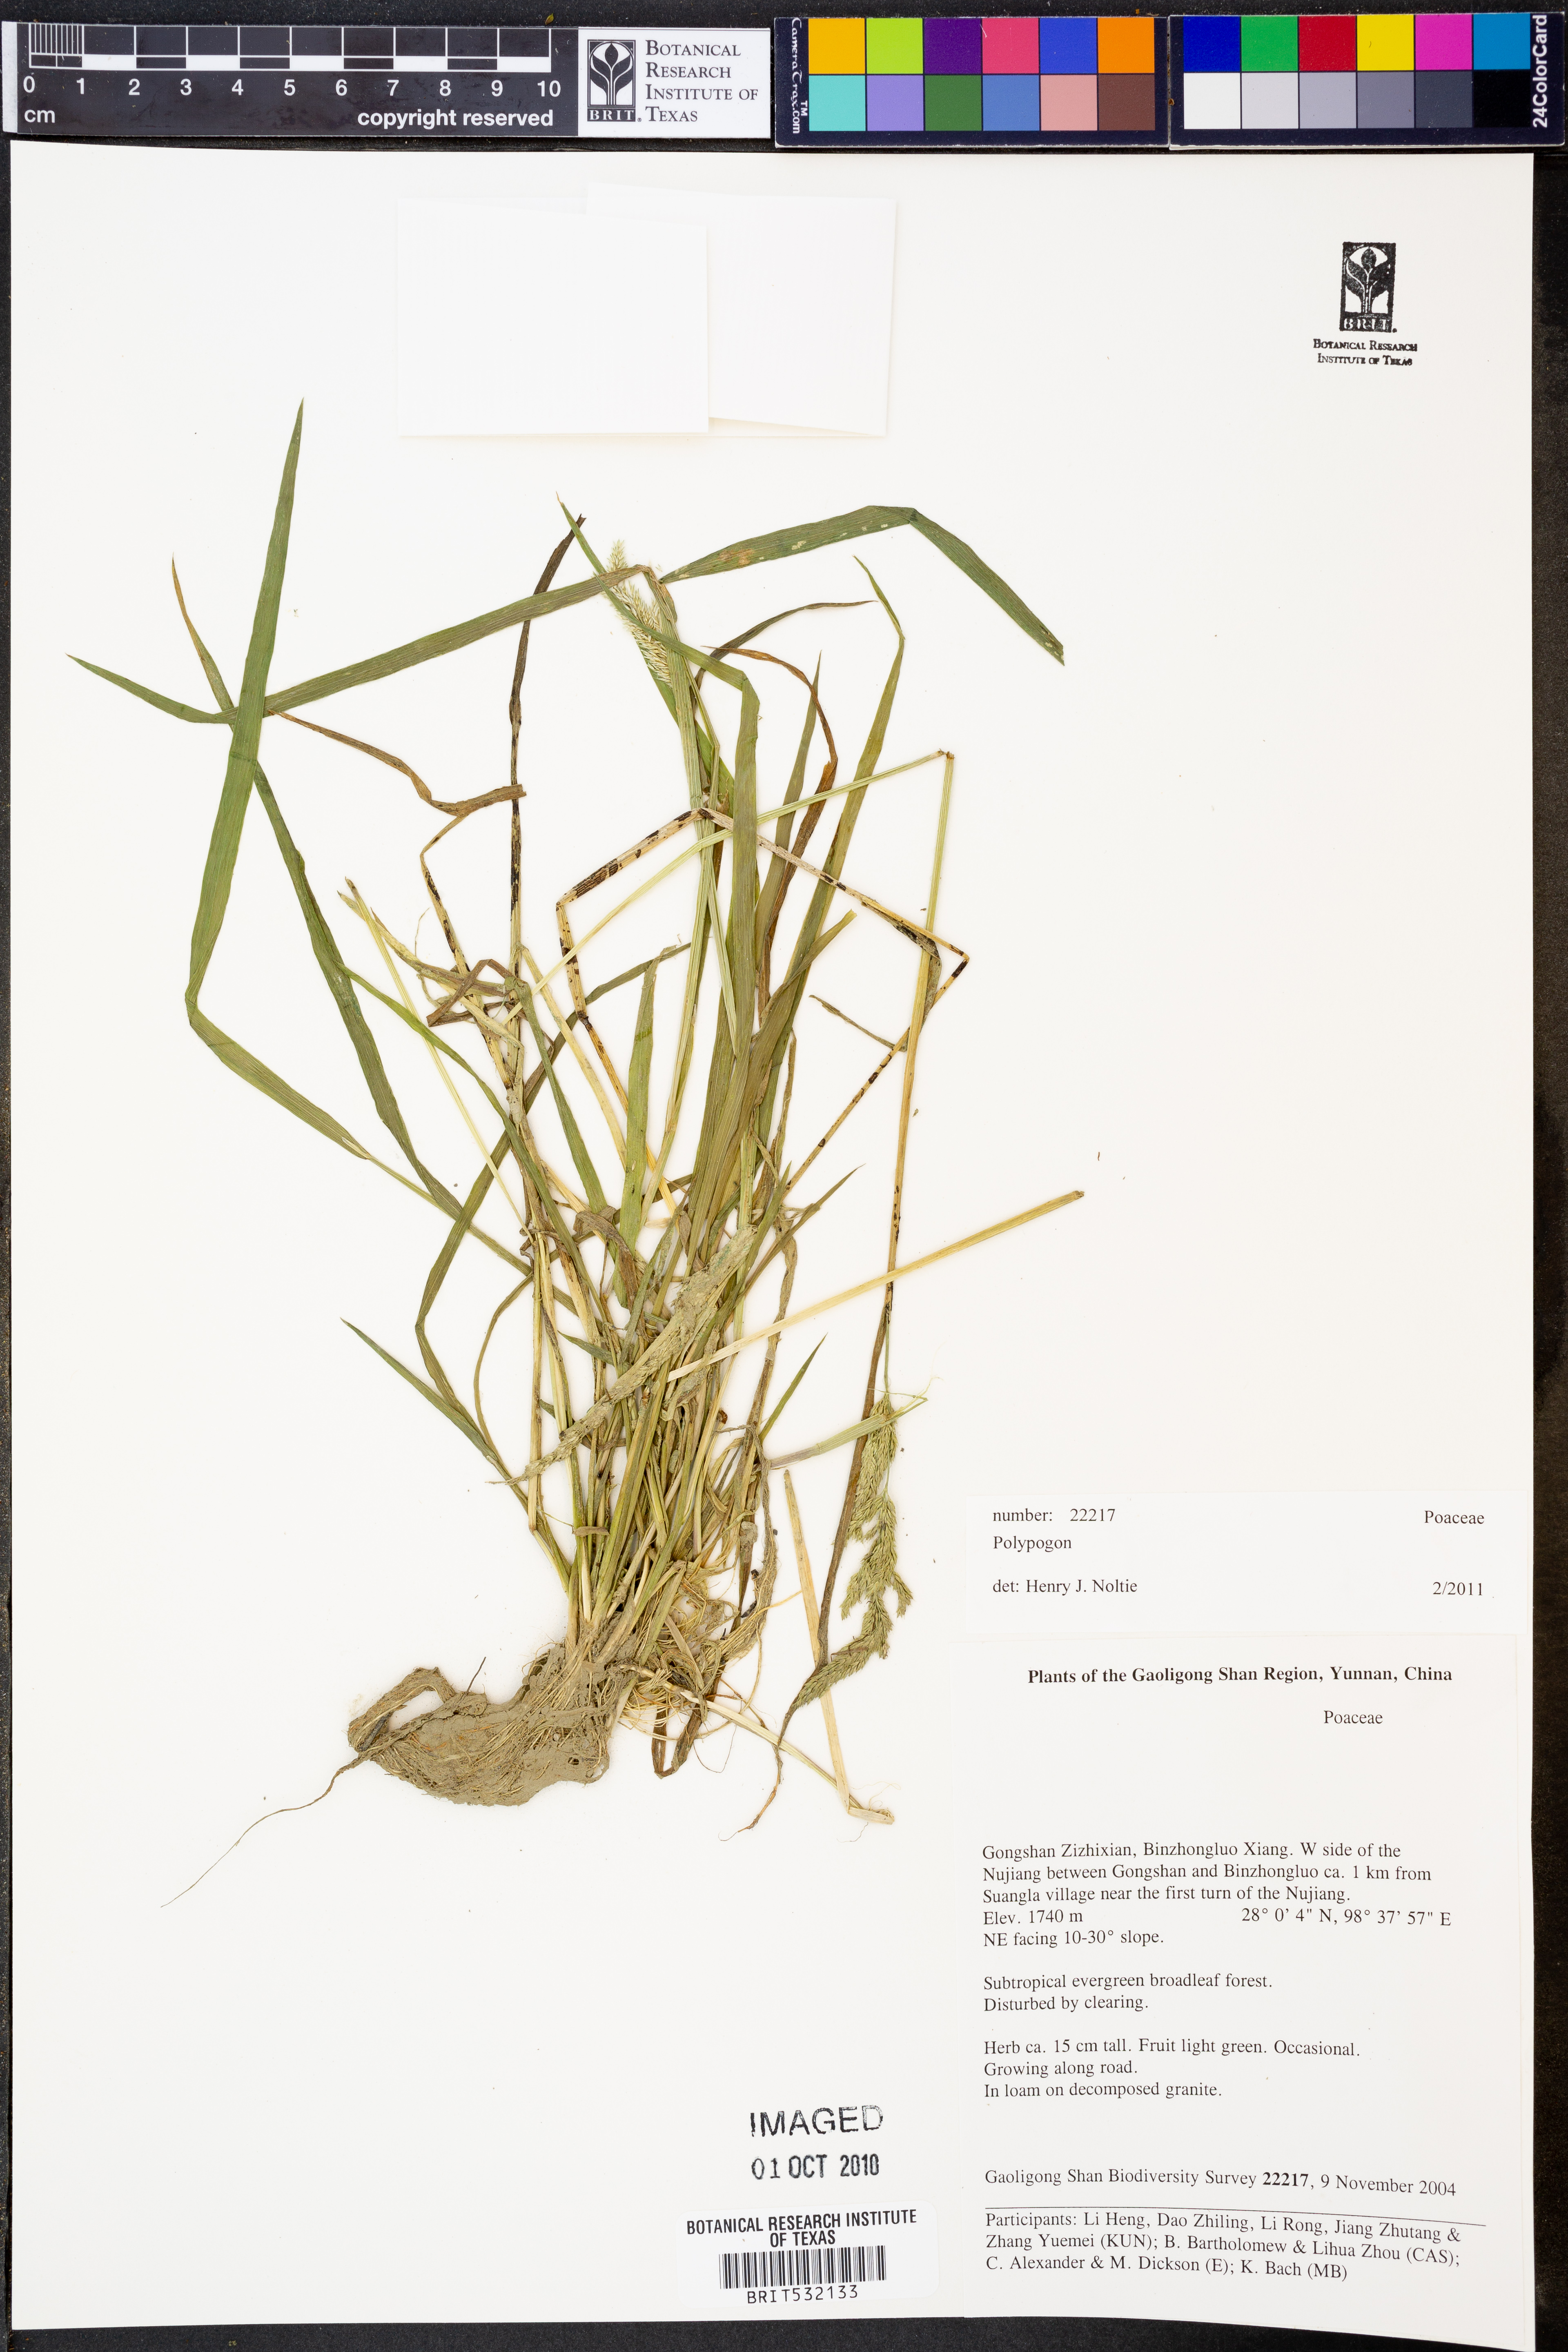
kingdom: Plantae
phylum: Tracheophyta
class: Liliopsida
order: Poales
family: Poaceae
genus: Polypogon
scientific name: Polypogon
